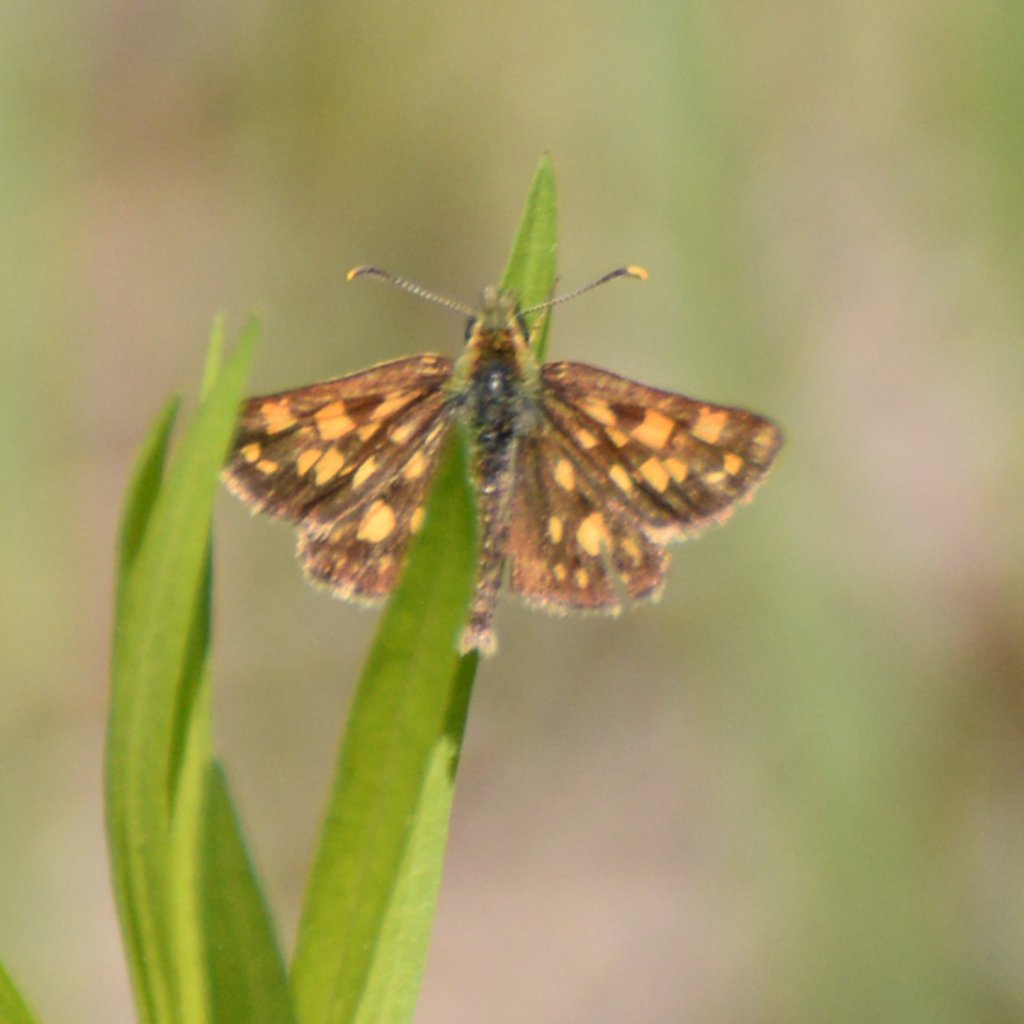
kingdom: Animalia
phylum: Arthropoda
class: Insecta
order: Lepidoptera
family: Hesperiidae
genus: Carterocephalus
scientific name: Carterocephalus palaemon
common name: Chequered Skipper
